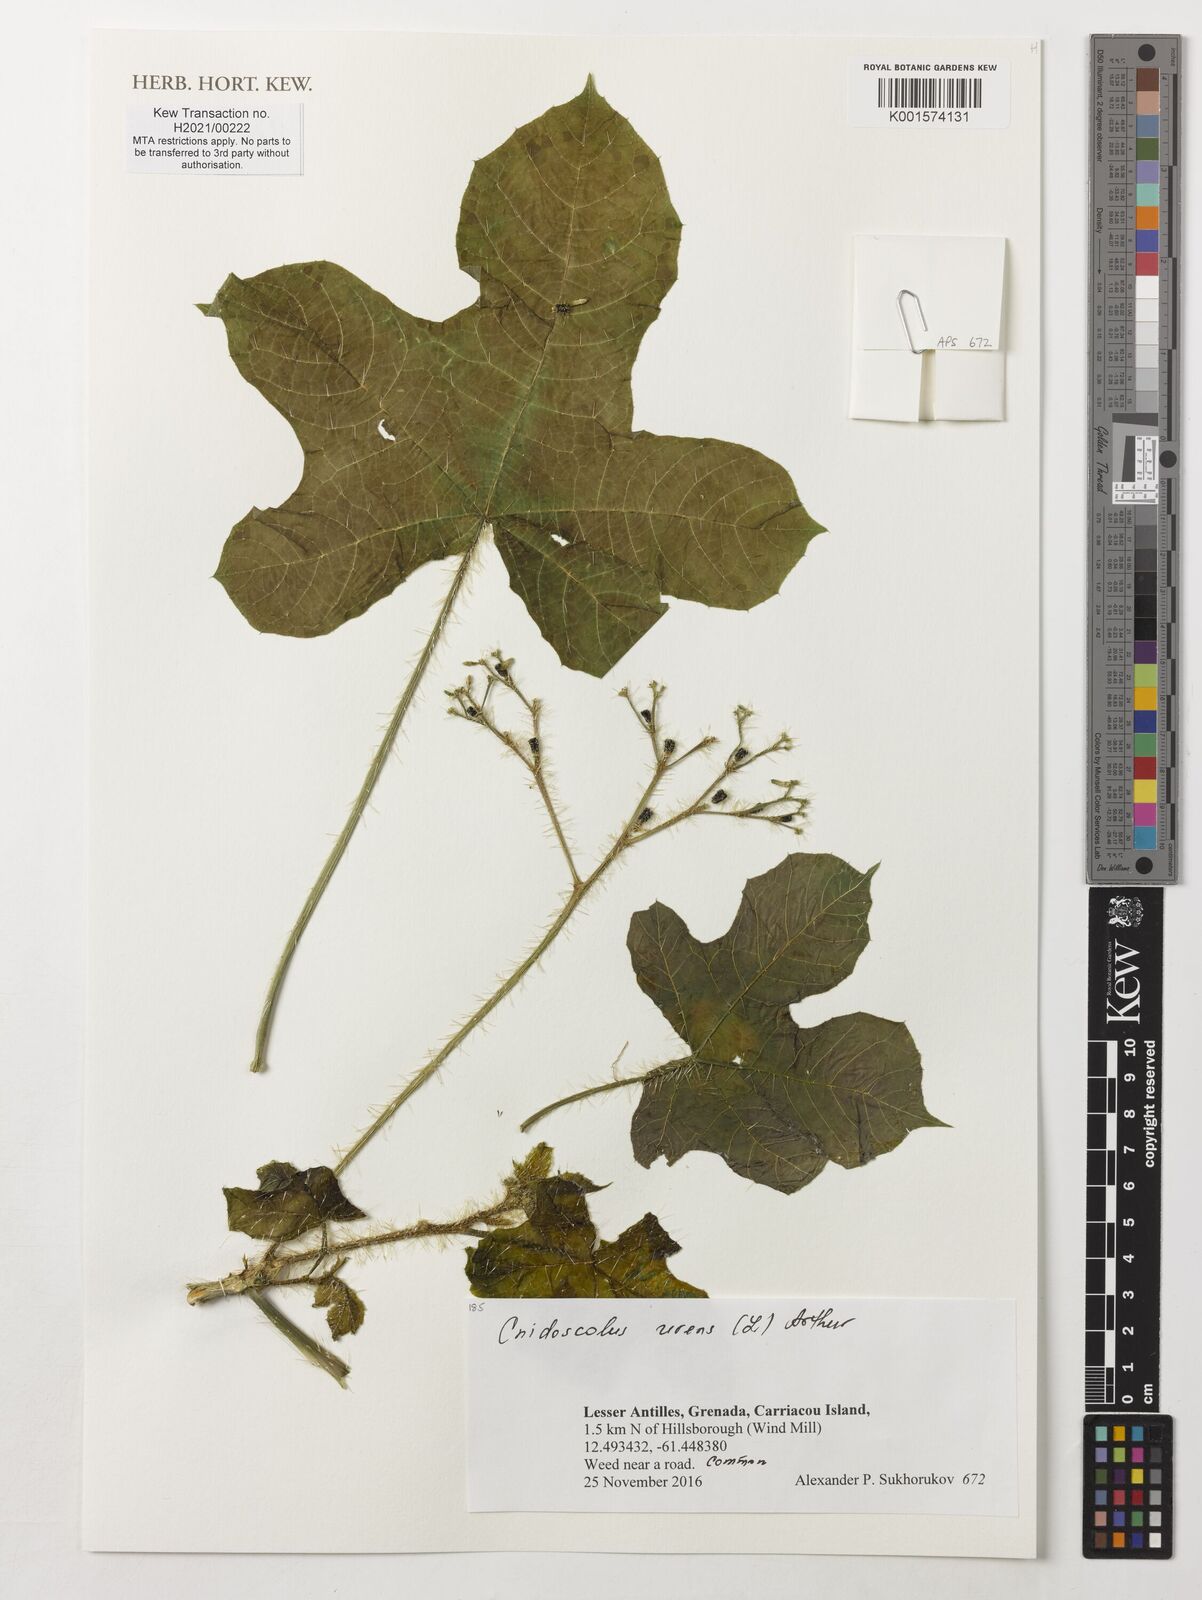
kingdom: Plantae
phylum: Tracheophyta
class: Magnoliopsida
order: Malpighiales
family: Euphorbiaceae
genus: Cnidoscolus
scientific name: Cnidoscolus urens
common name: Bull-nettle
